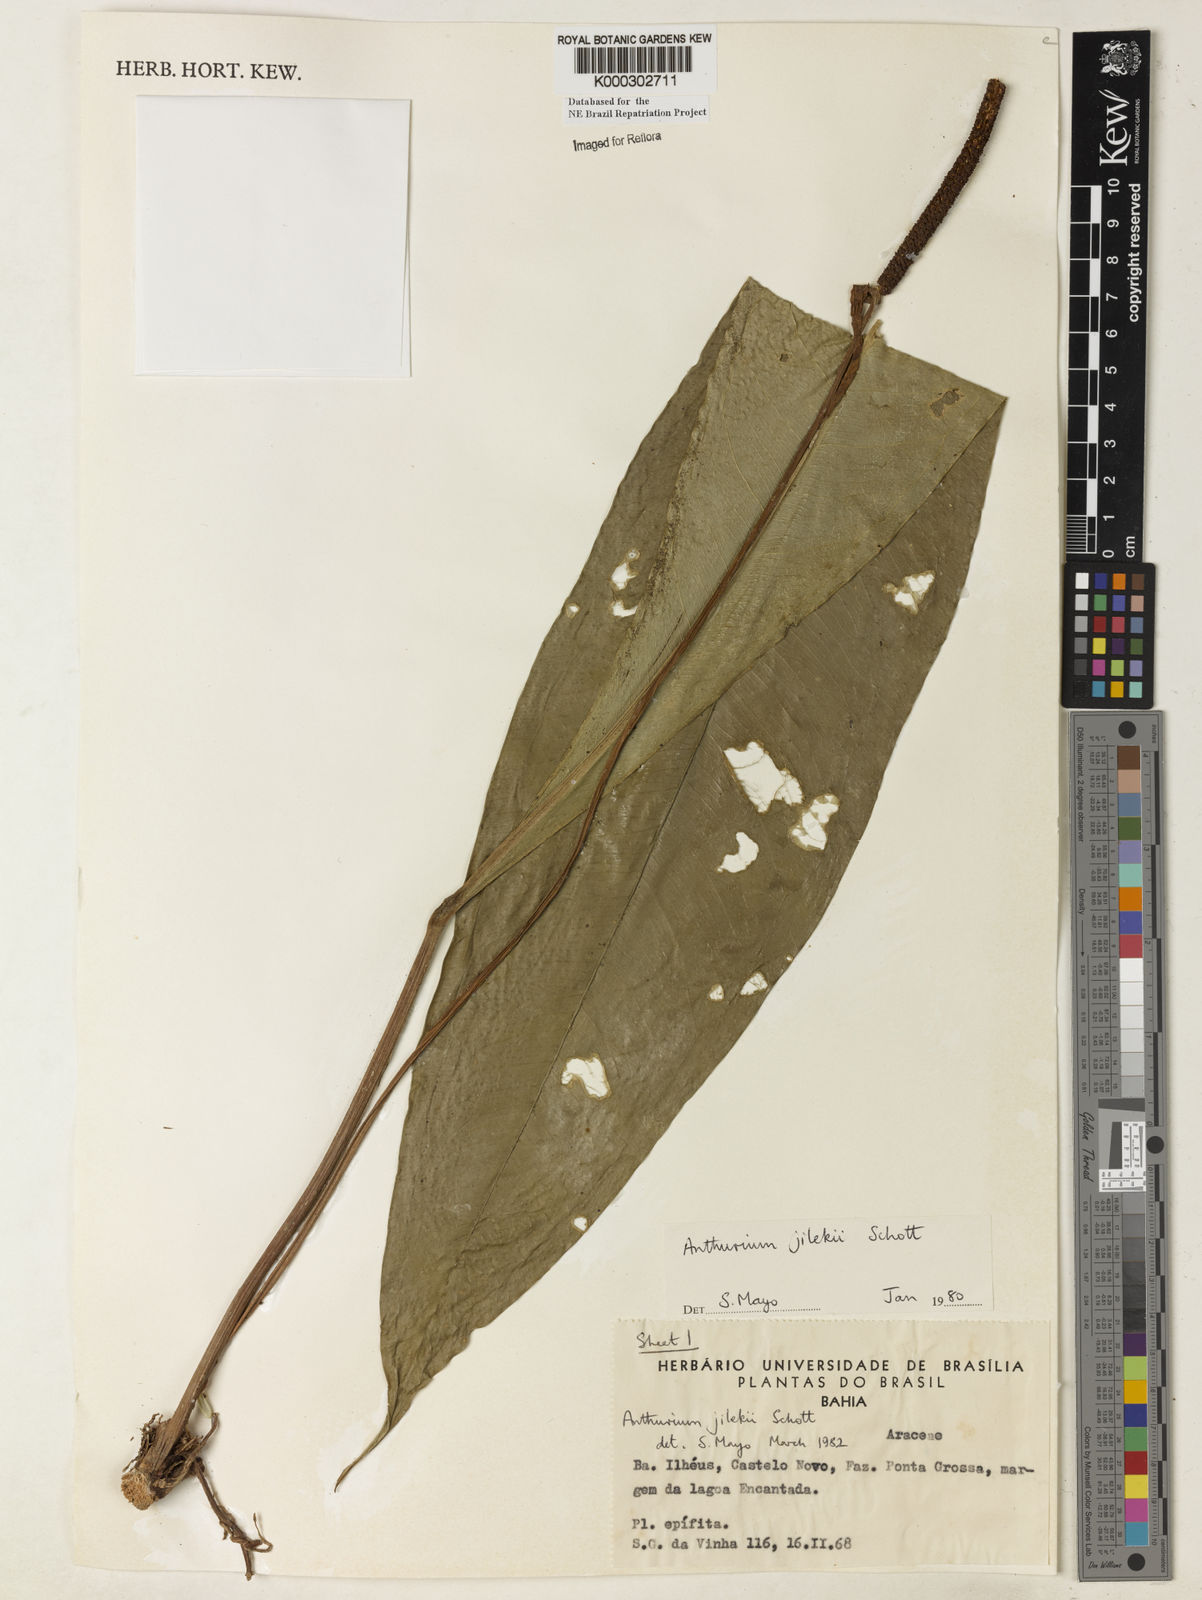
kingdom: Plantae
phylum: Tracheophyta
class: Liliopsida
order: Alismatales
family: Araceae
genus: Anthurium
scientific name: Anthurium jilekii
